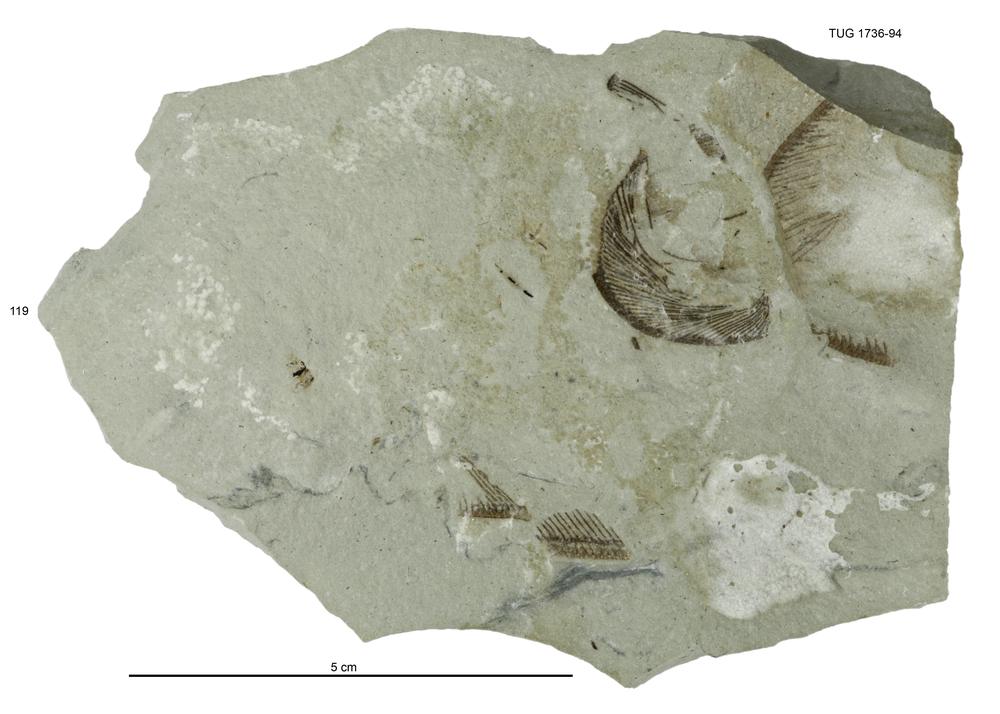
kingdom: Animalia
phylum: Echinodermata
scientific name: Echinodermata
